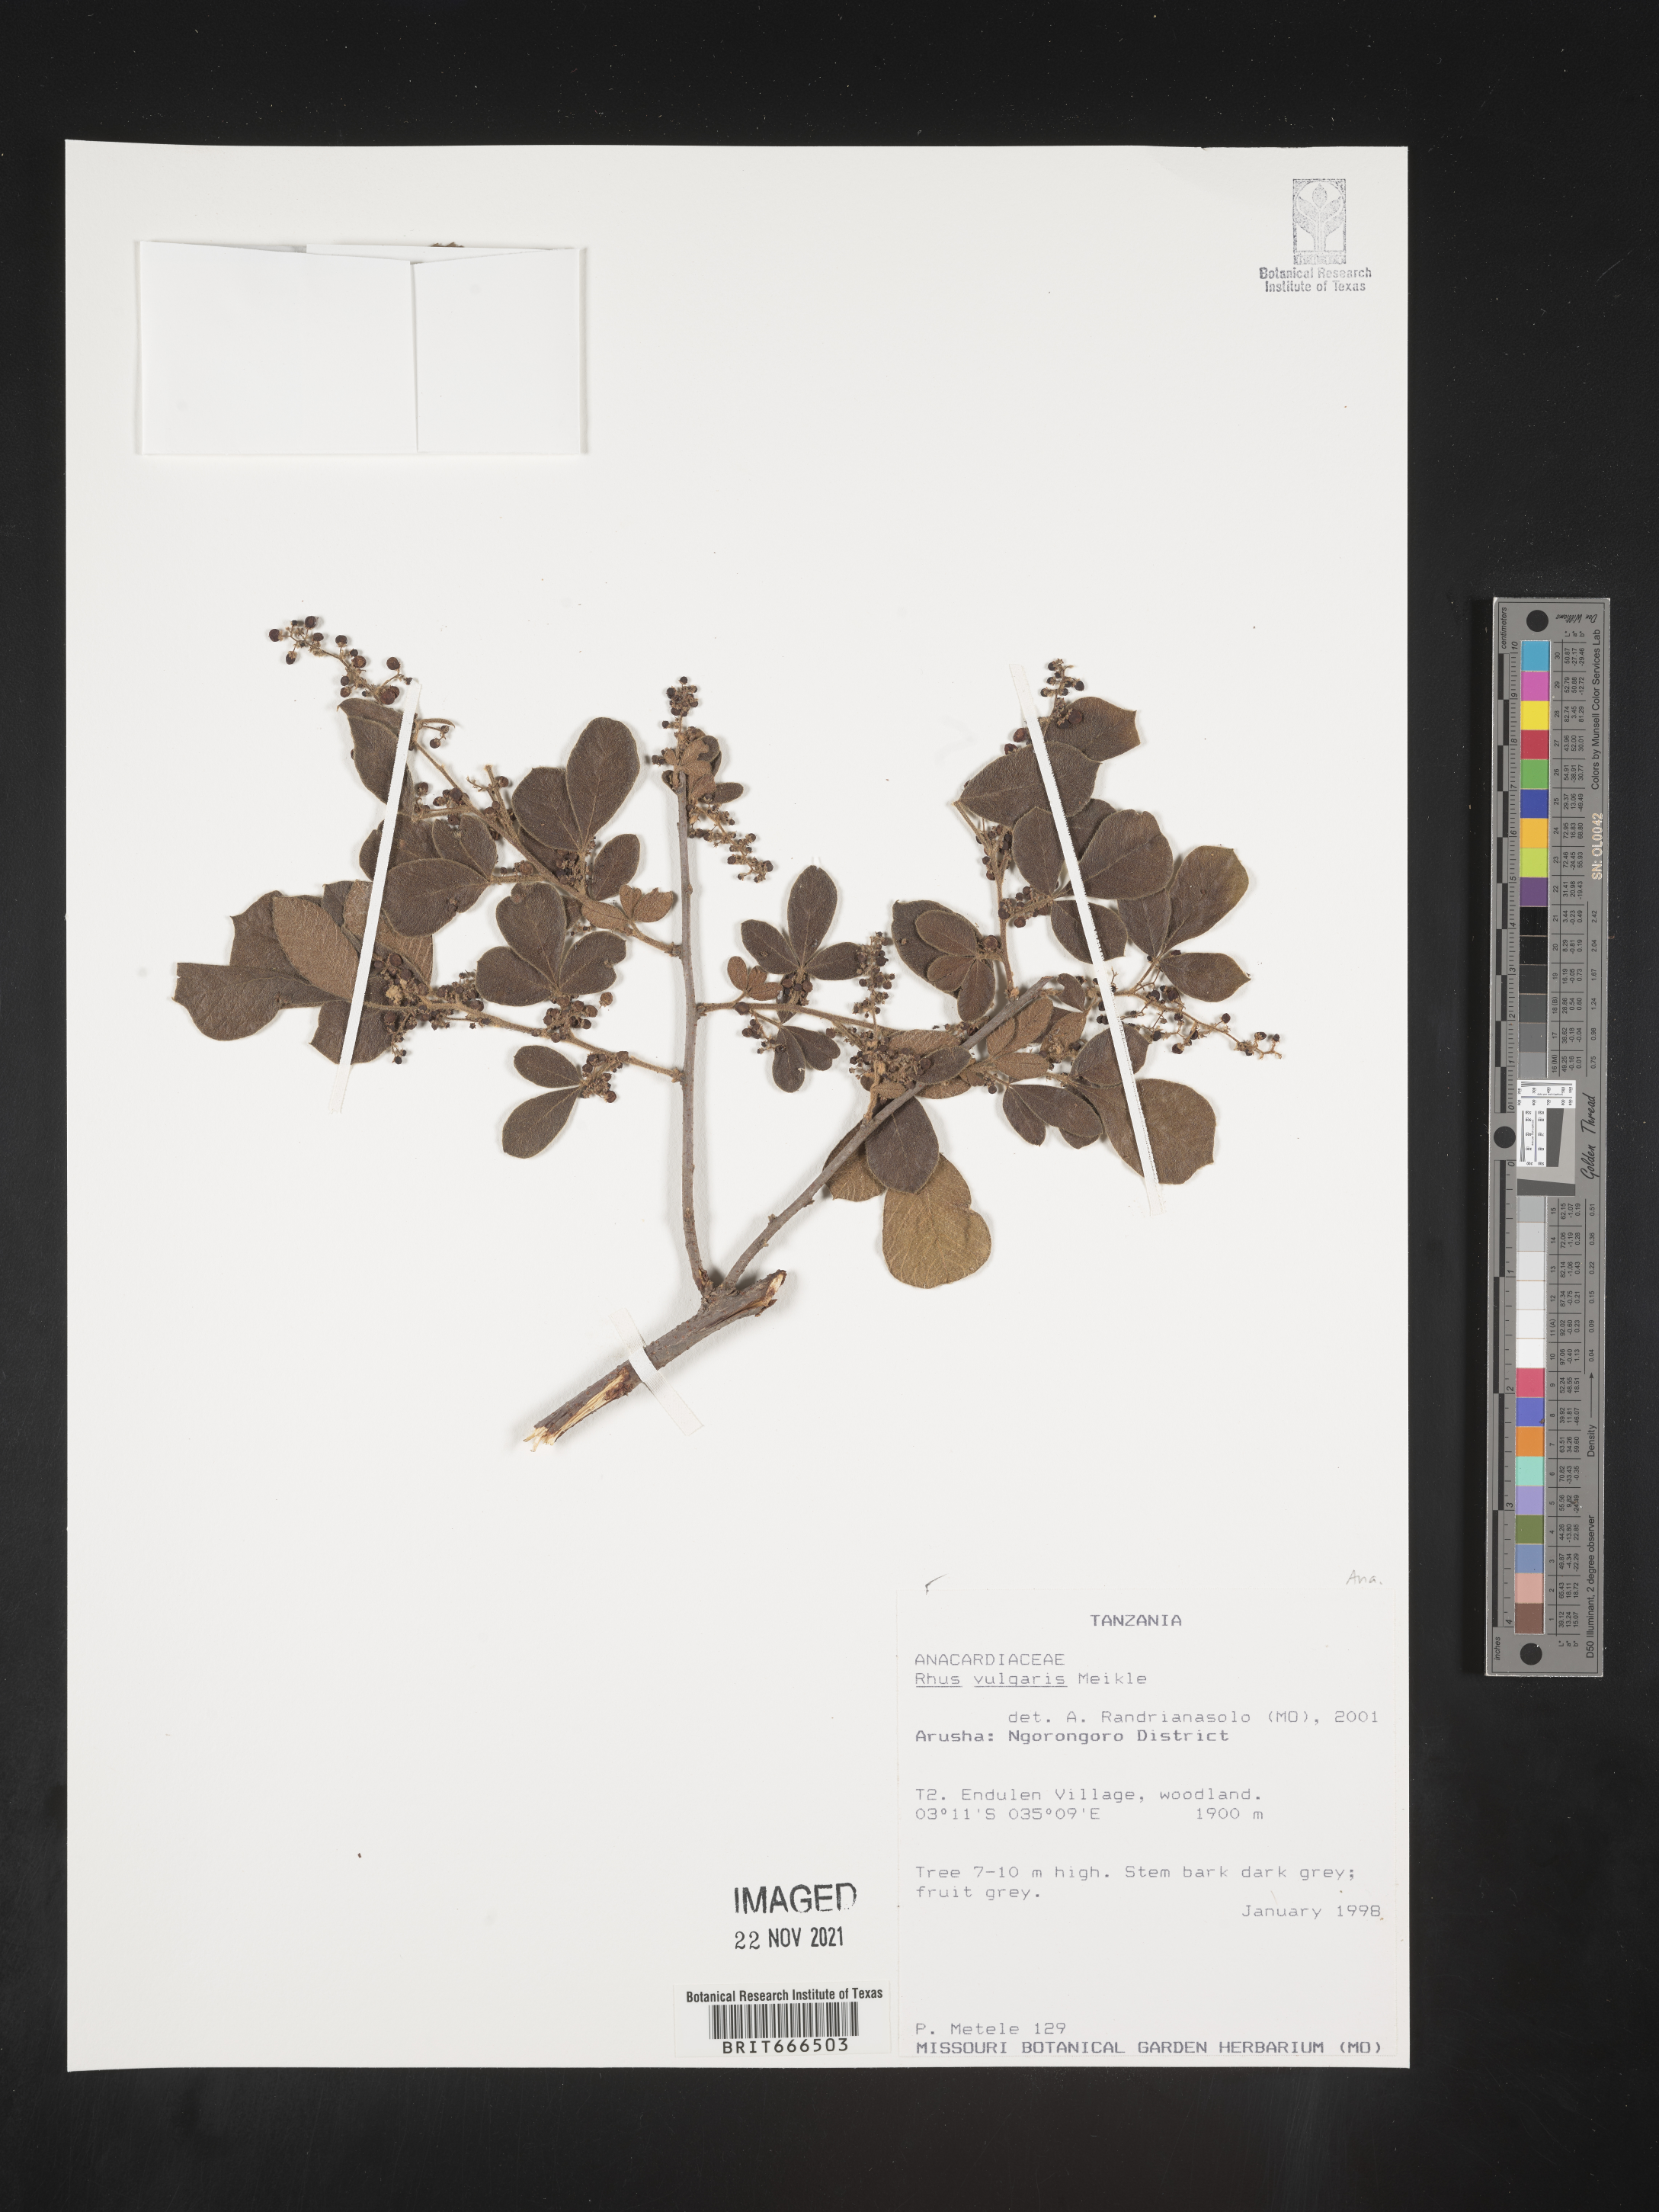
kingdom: Plantae
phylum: Tracheophyta
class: Magnoliopsida
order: Sapindales
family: Anacardiaceae
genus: Rhus
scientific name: Rhus
